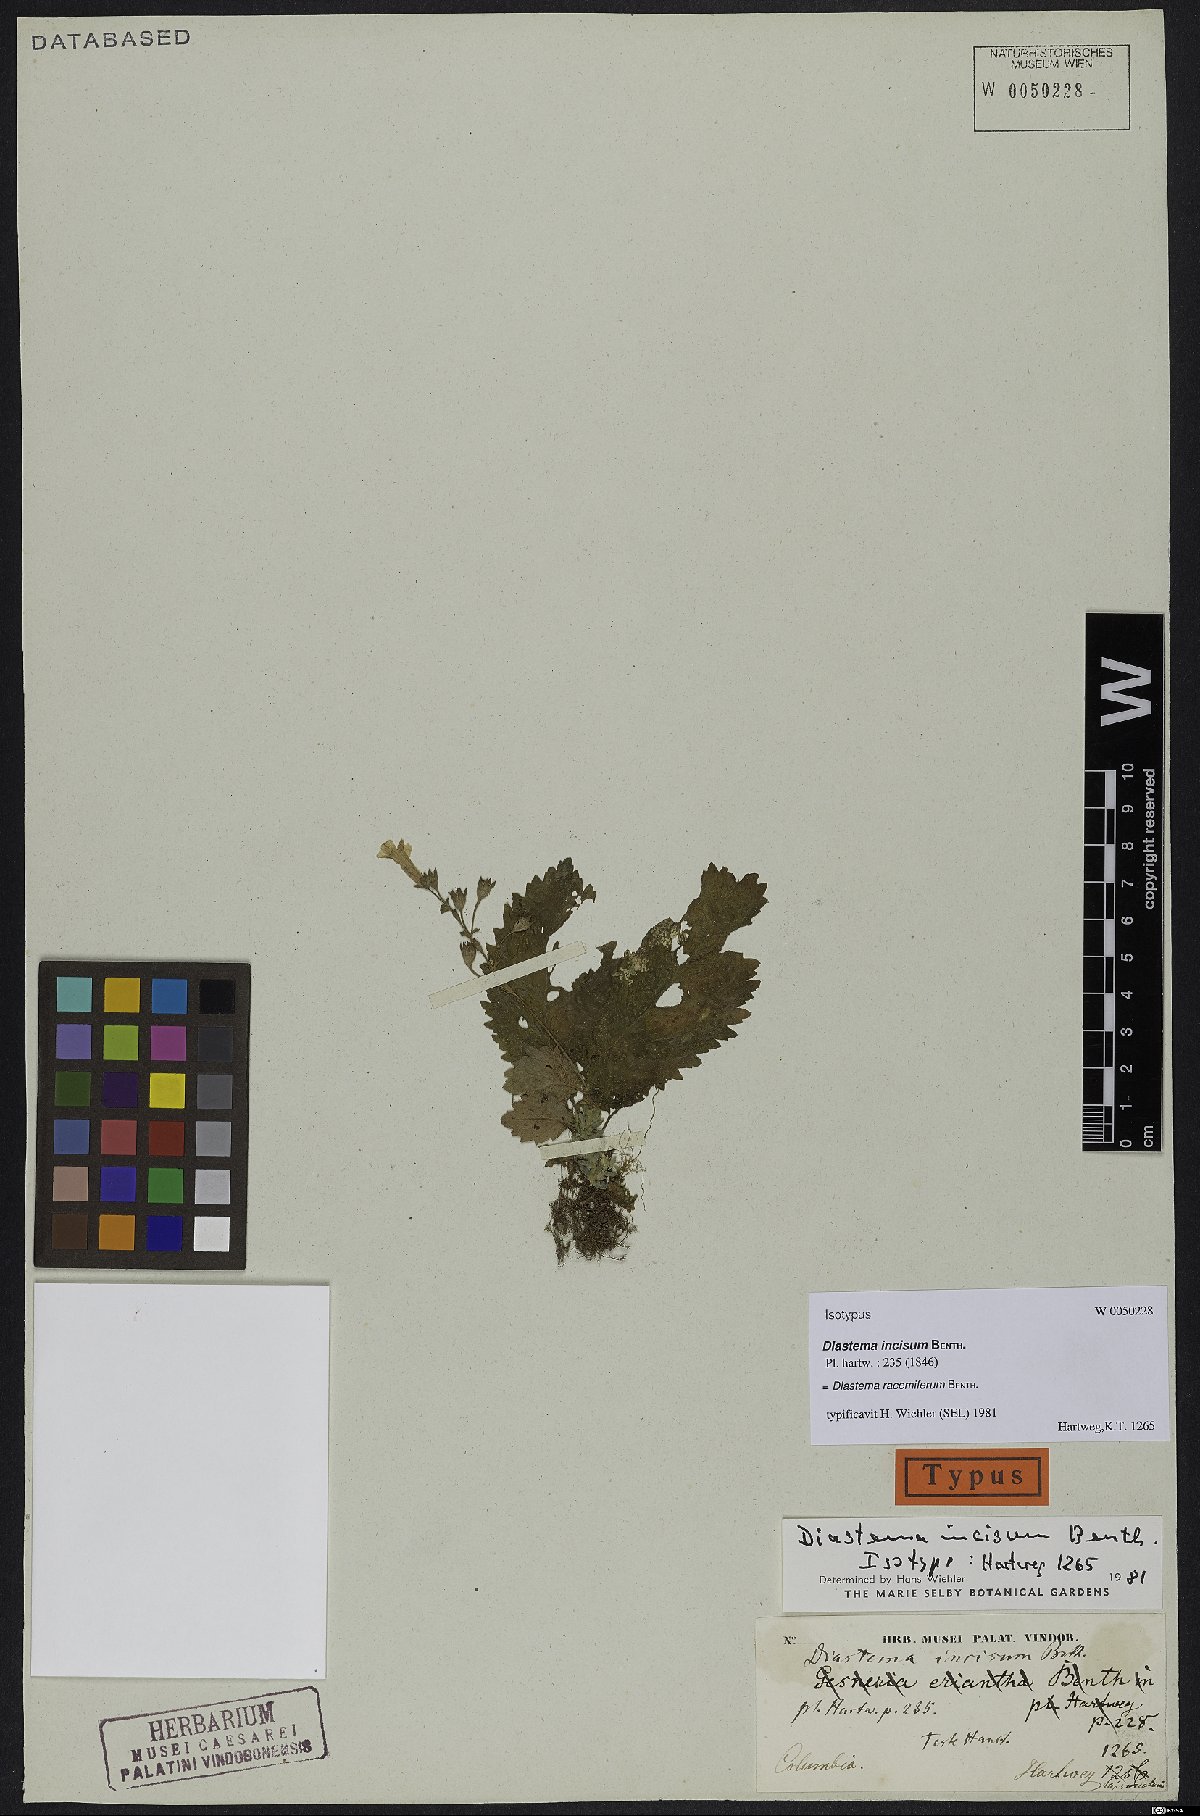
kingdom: Plantae
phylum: Tracheophyta
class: Magnoliopsida
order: Lamiales
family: Gesneriaceae
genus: Diastema
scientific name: Diastema racemiferum
